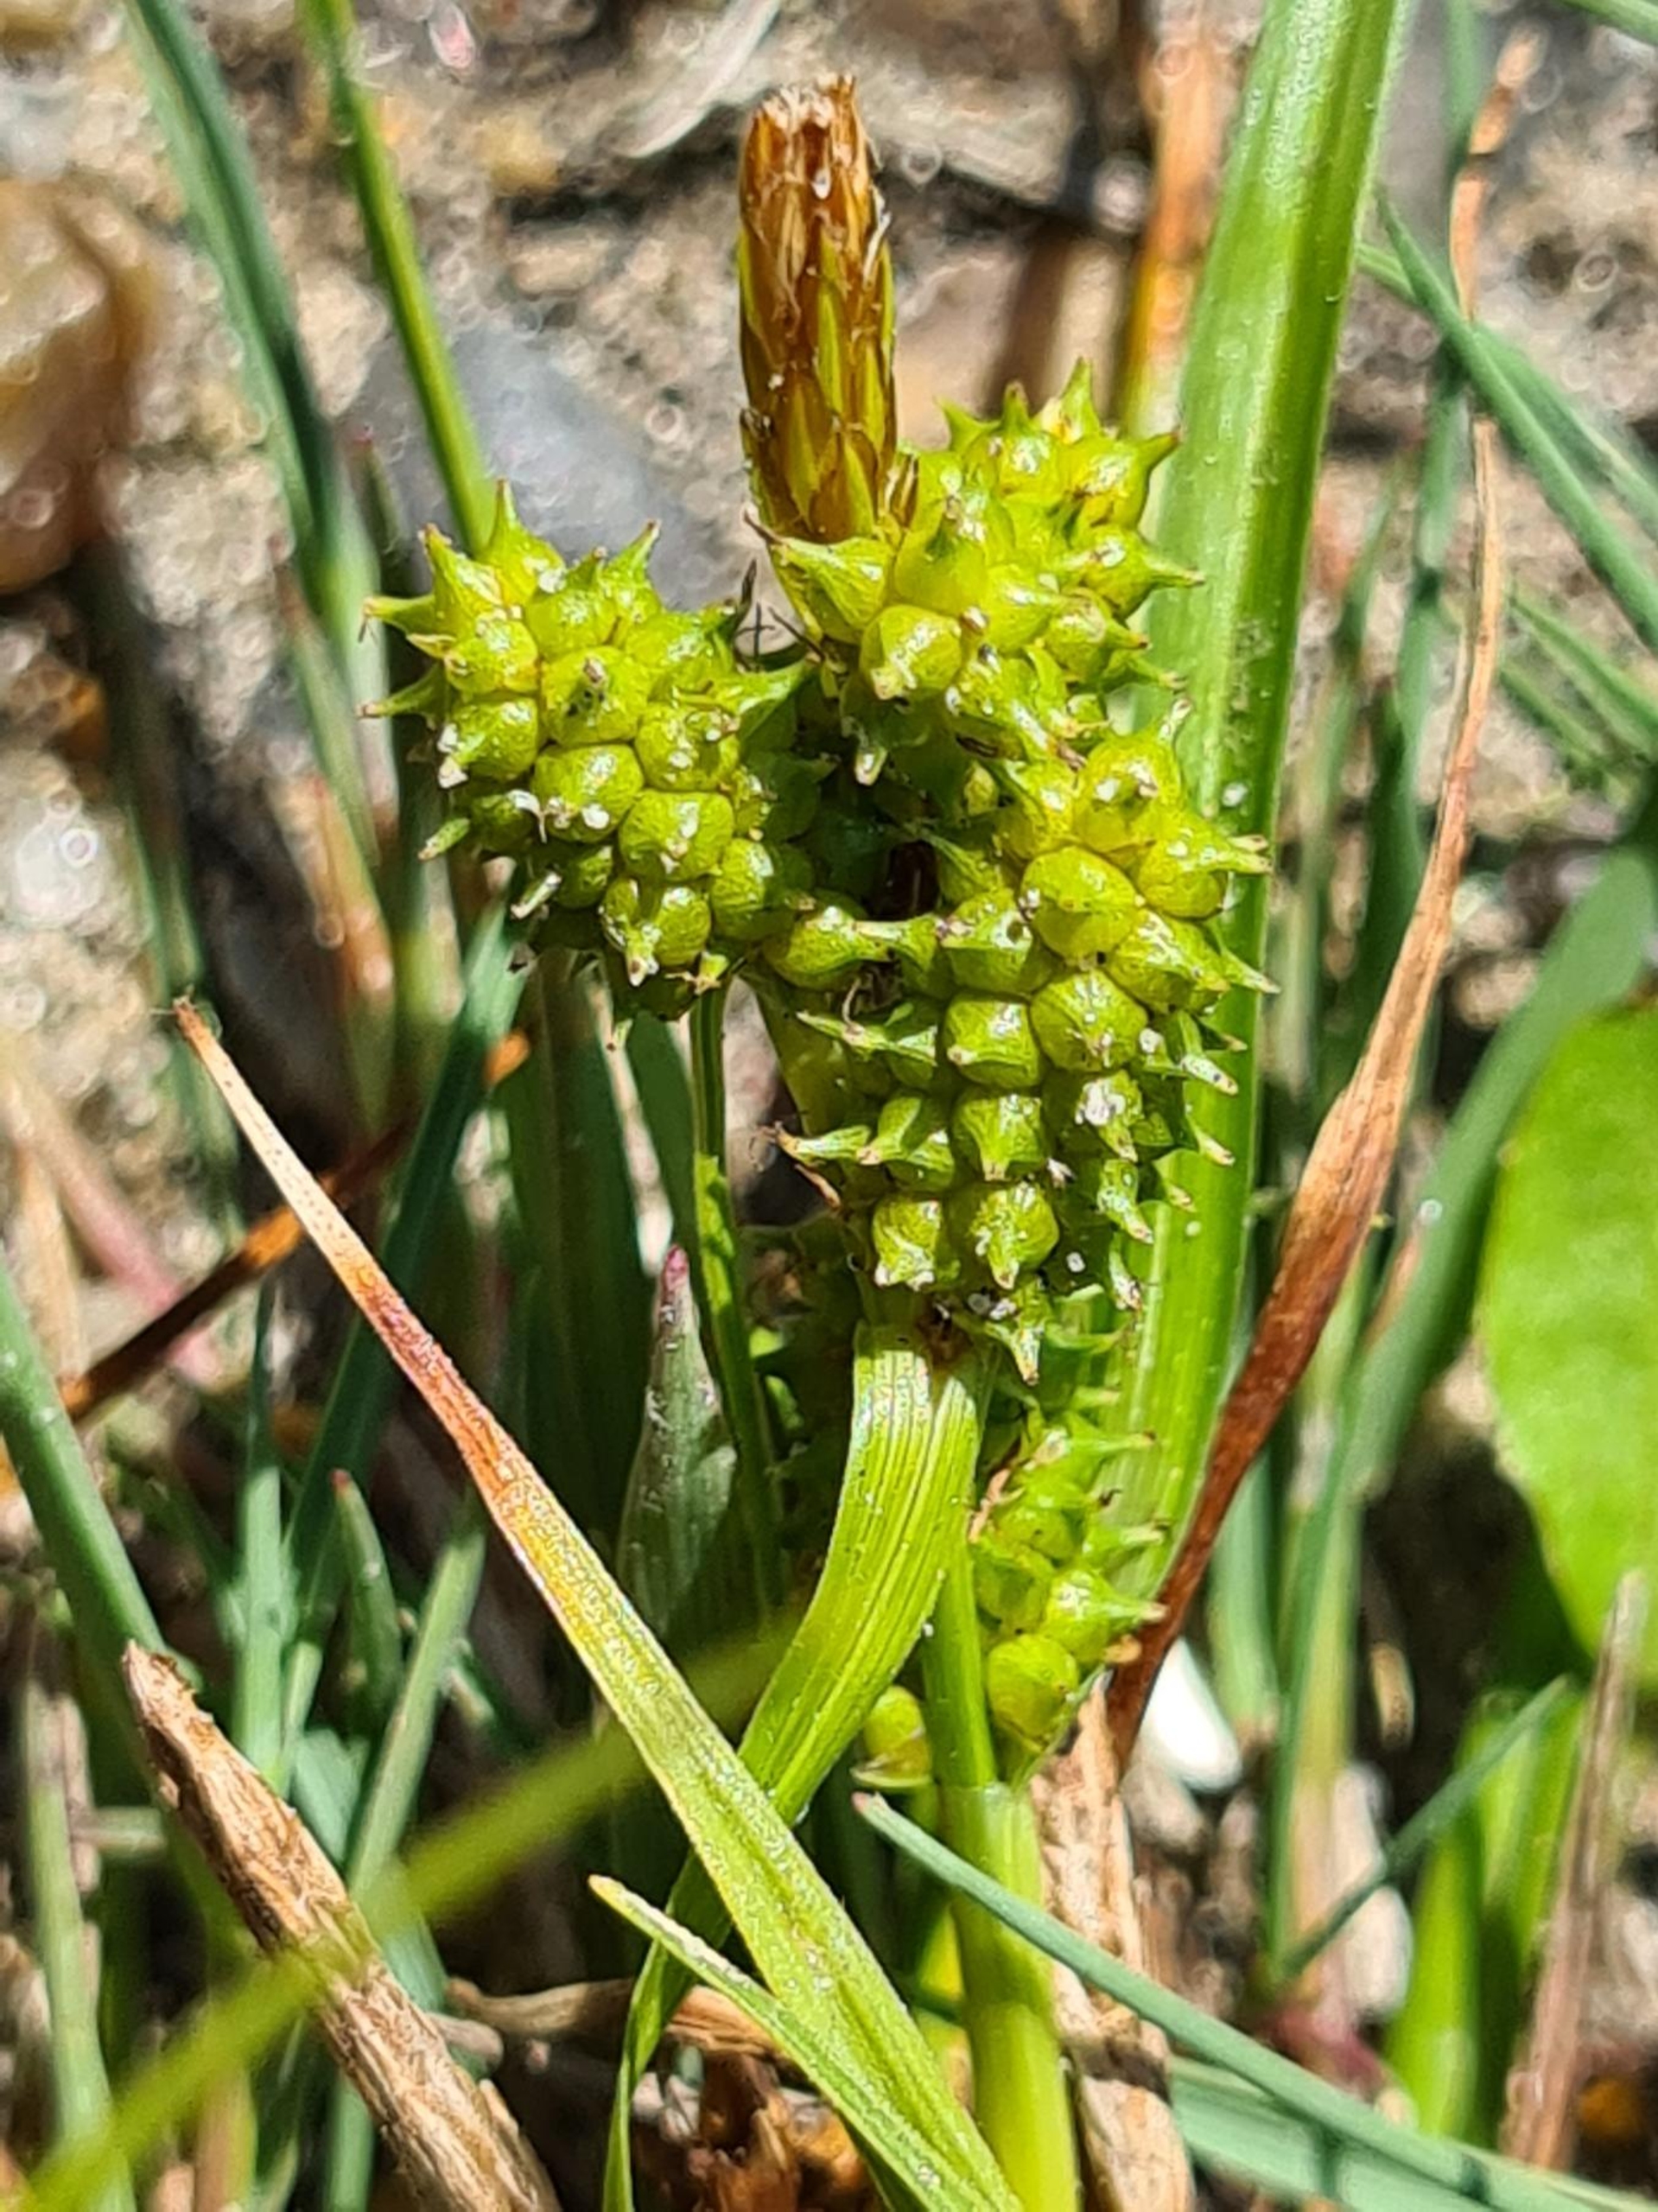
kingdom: Plantae
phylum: Tracheophyta
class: Liliopsida
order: Poales
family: Cyperaceae
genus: Carex
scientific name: Carex oederi
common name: Dværg-star
